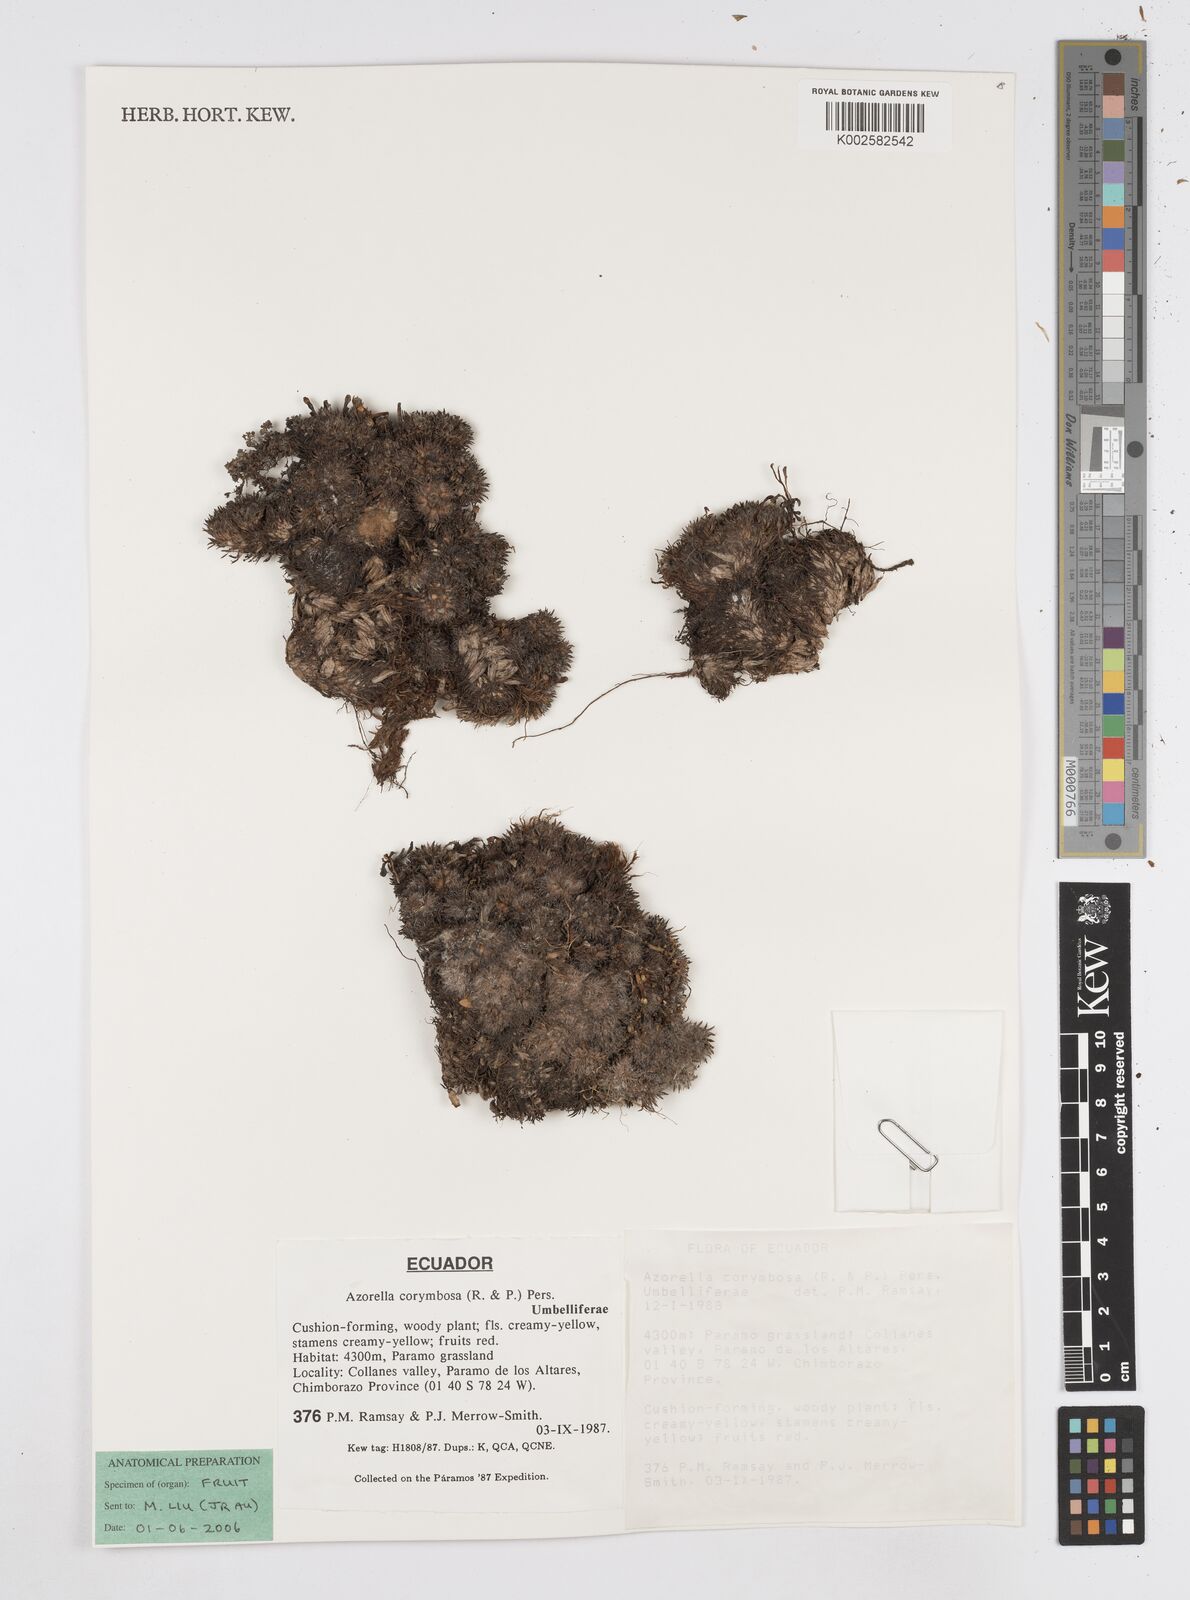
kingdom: Plantae
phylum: Tracheophyta
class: Magnoliopsida
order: Apiales
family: Apiaceae
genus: Azorella
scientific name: Azorella corymbosa
